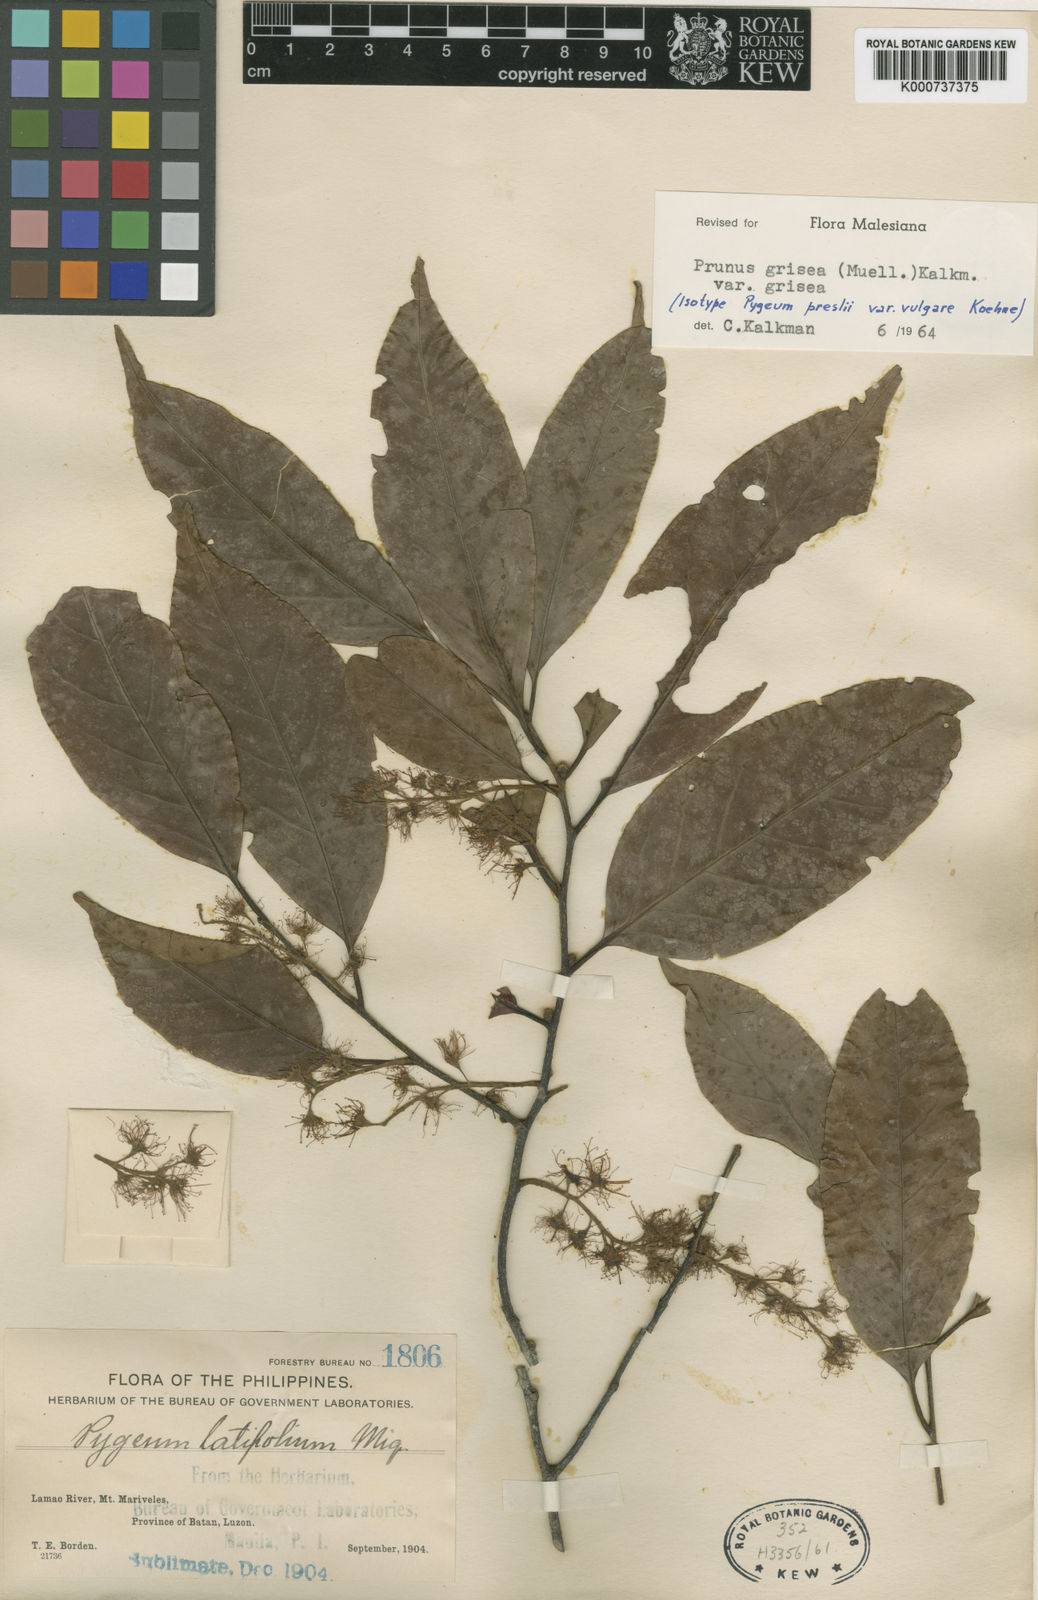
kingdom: Plantae
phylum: Tracheophyta
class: Magnoliopsida
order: Rosales
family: Rosaceae
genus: Prunus
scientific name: Prunus
